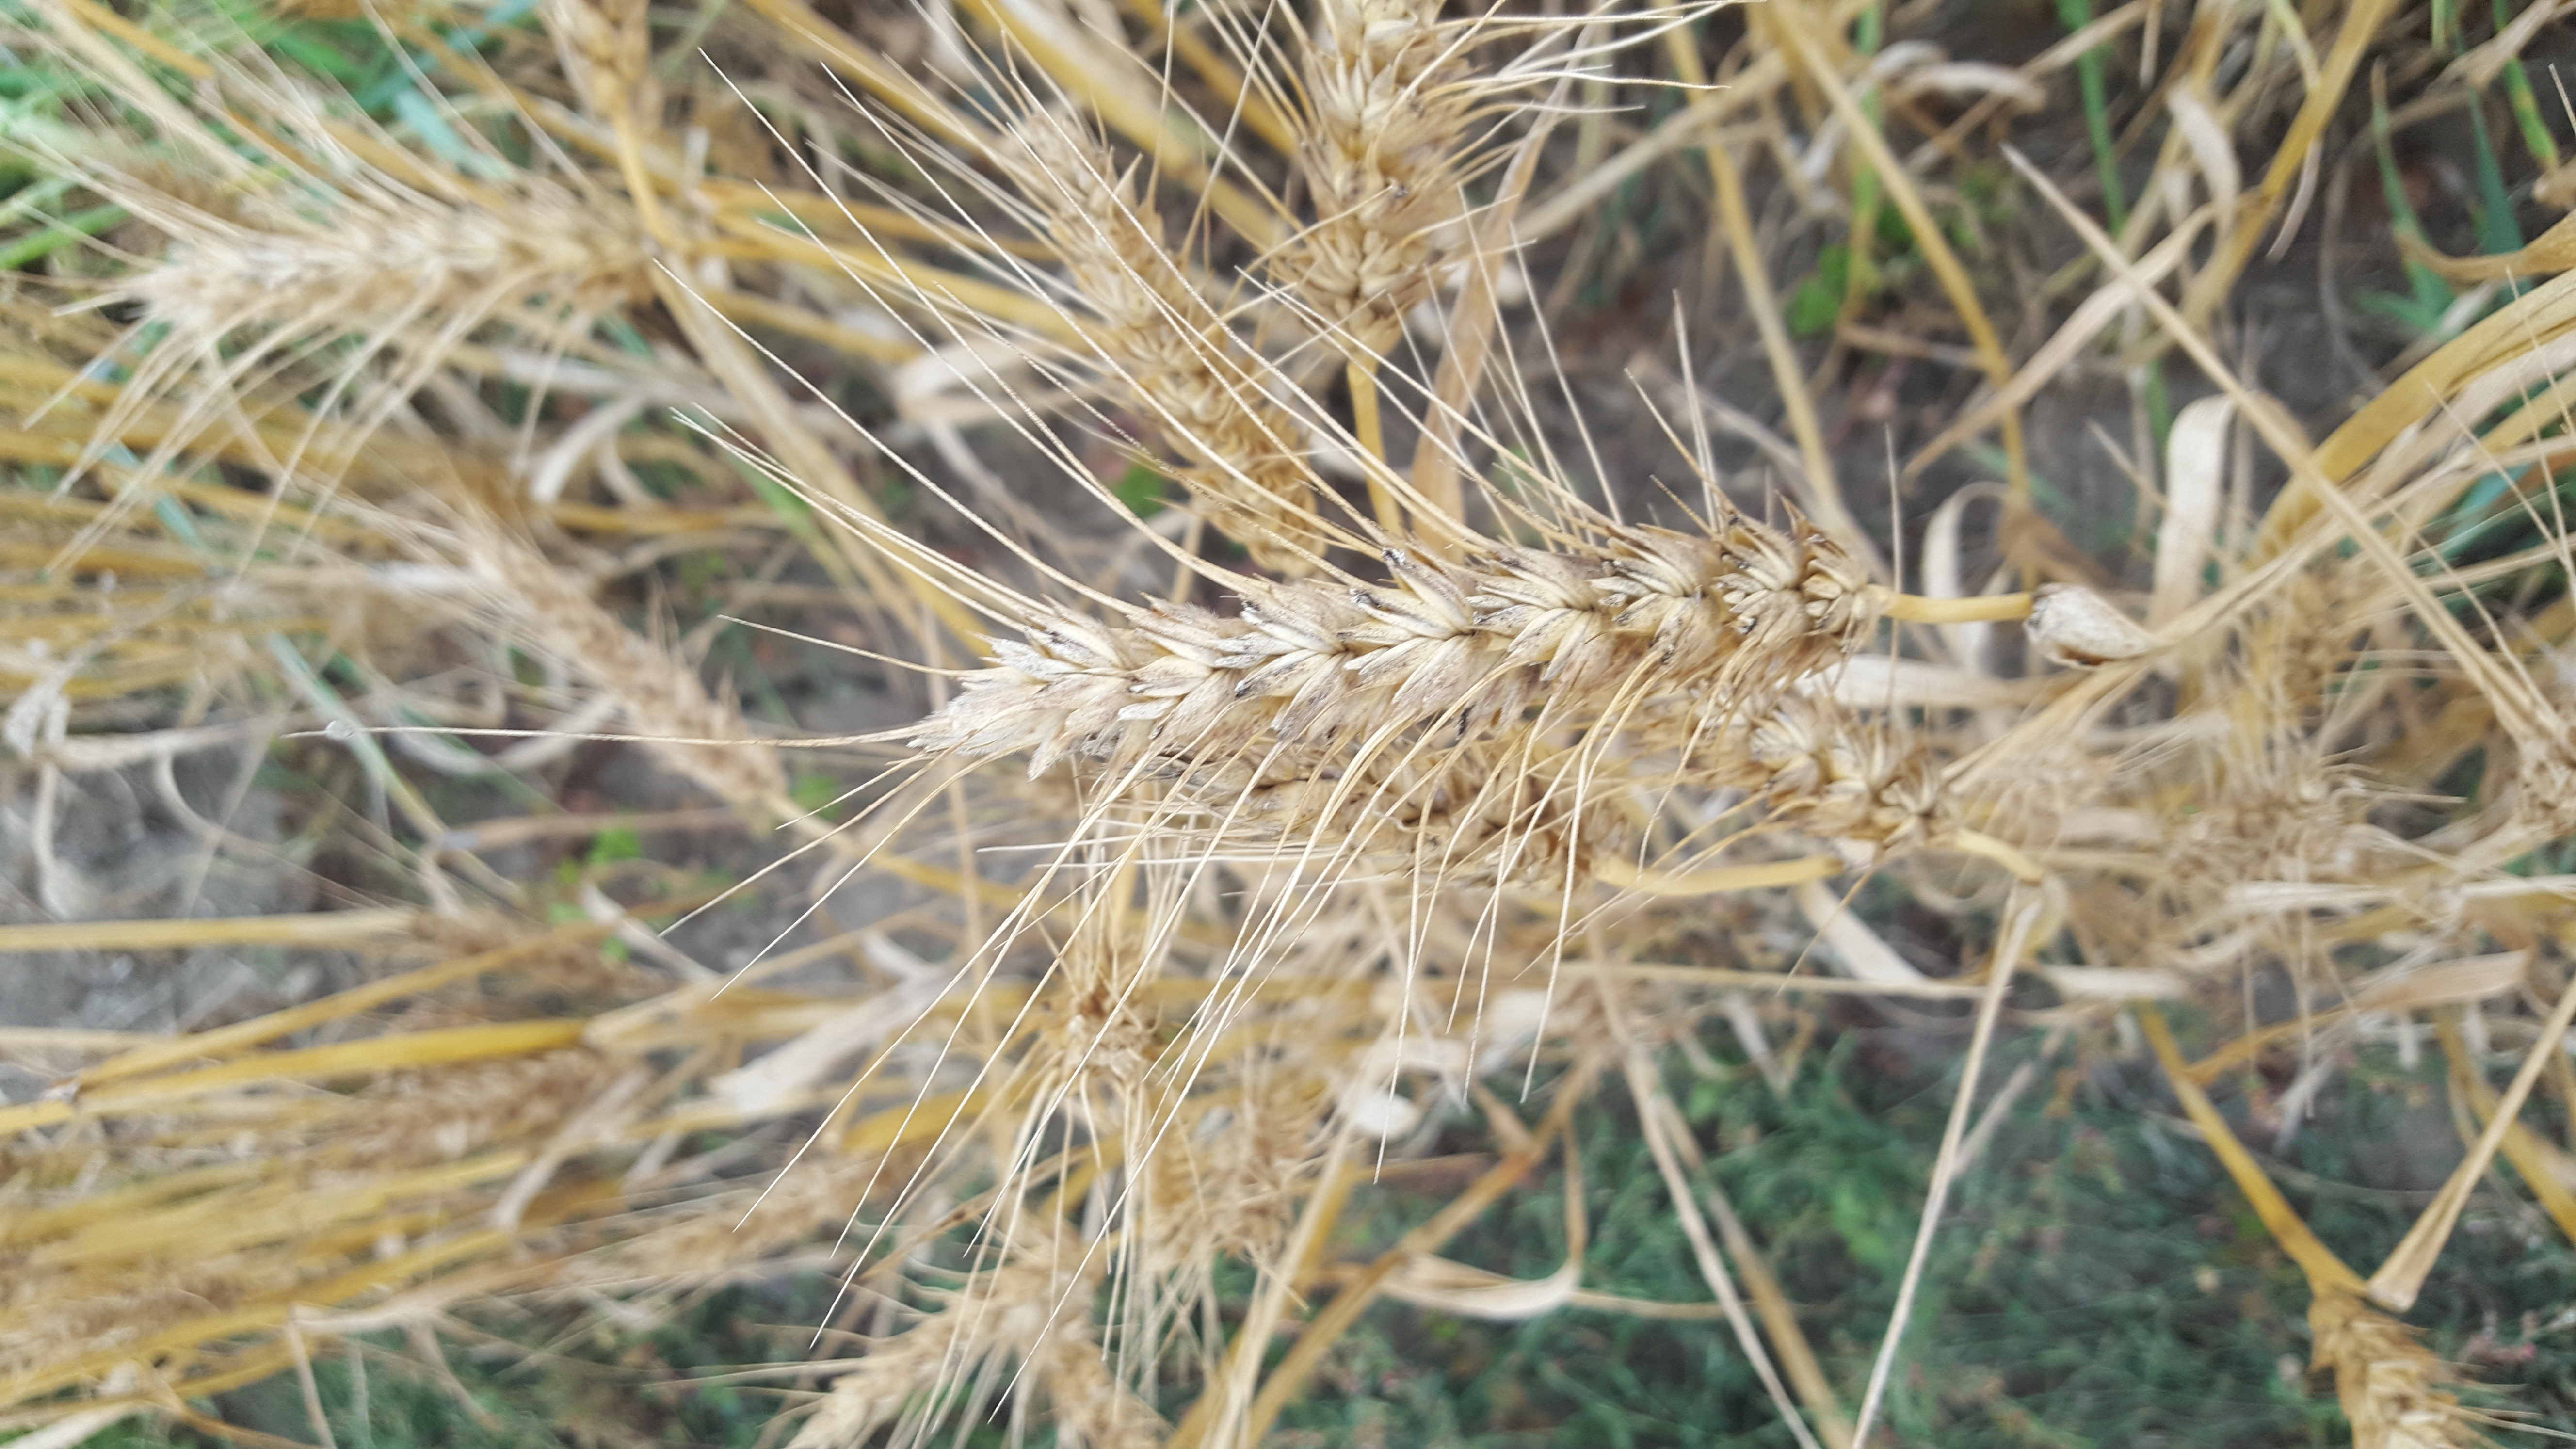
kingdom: Plantae
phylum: Tracheophyta
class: Liliopsida
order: Poales
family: Poaceae
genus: Triticum
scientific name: Triticum aestivum
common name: Common wheat
